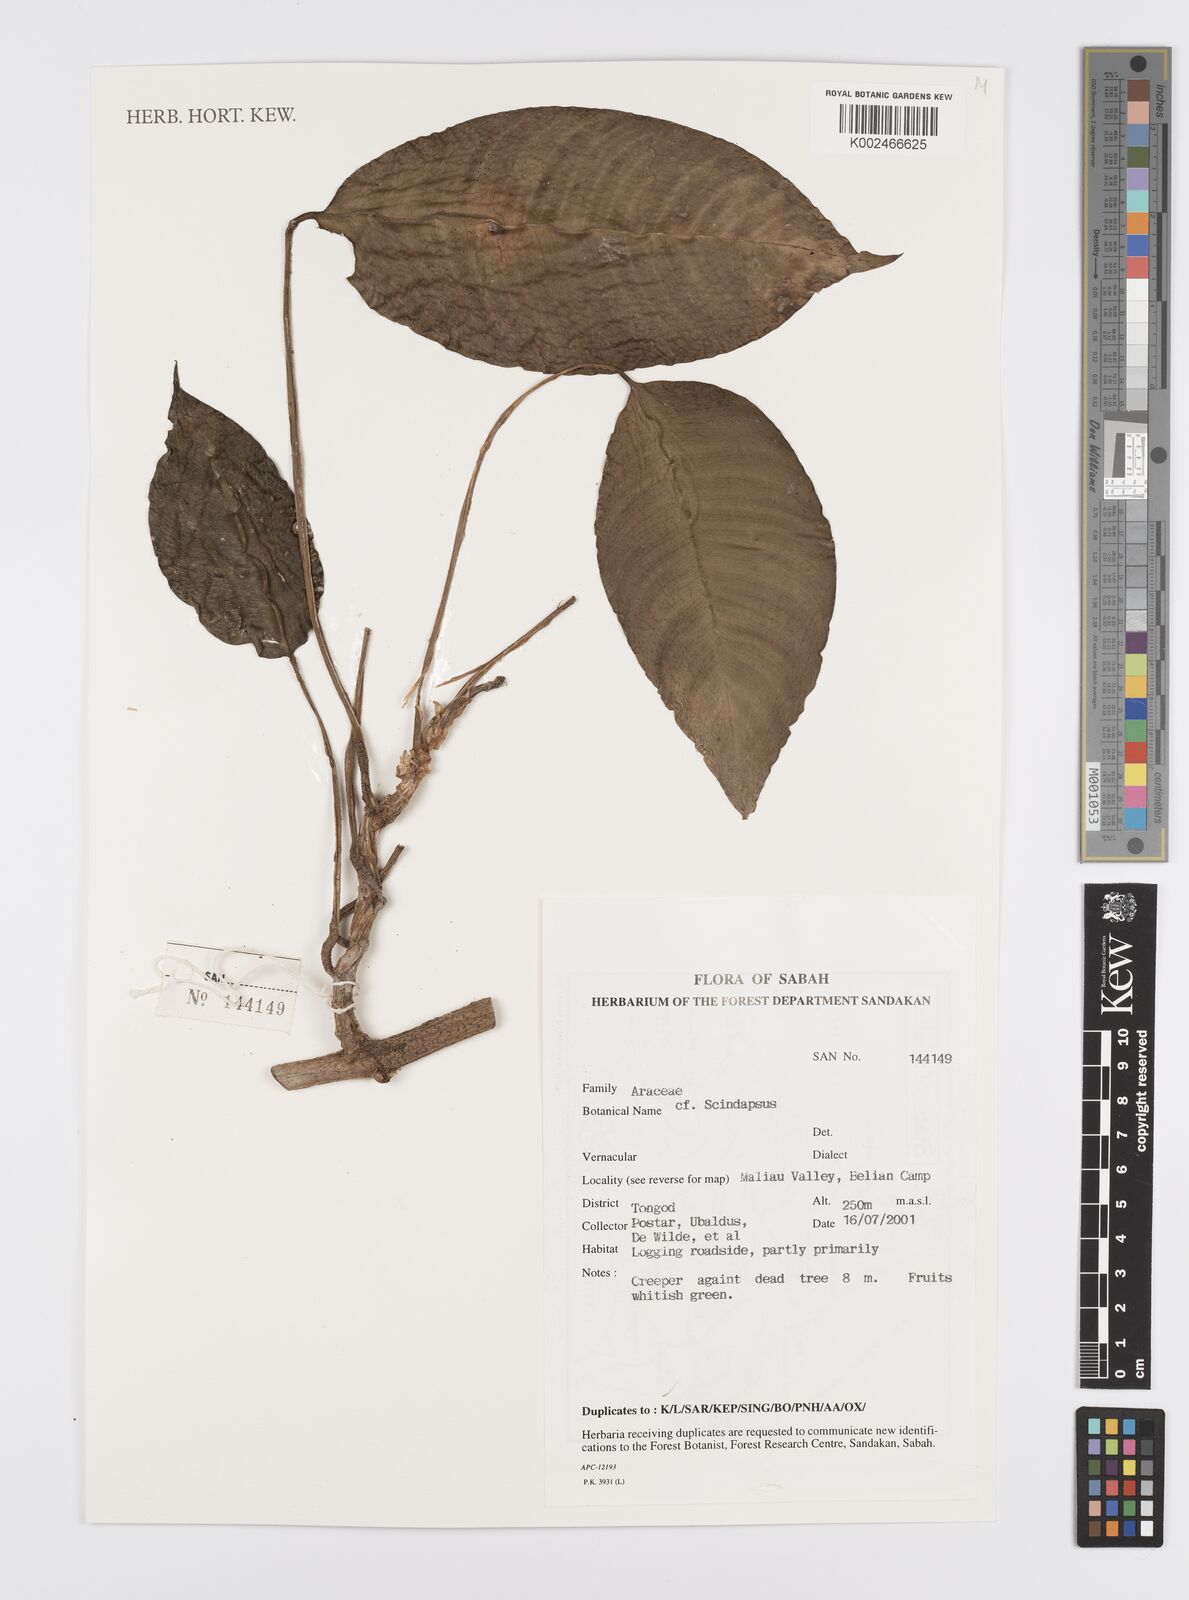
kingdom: Plantae
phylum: Tracheophyta
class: Liliopsida
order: Alismatales
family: Araceae
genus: Scindapsus
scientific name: Scindapsus
